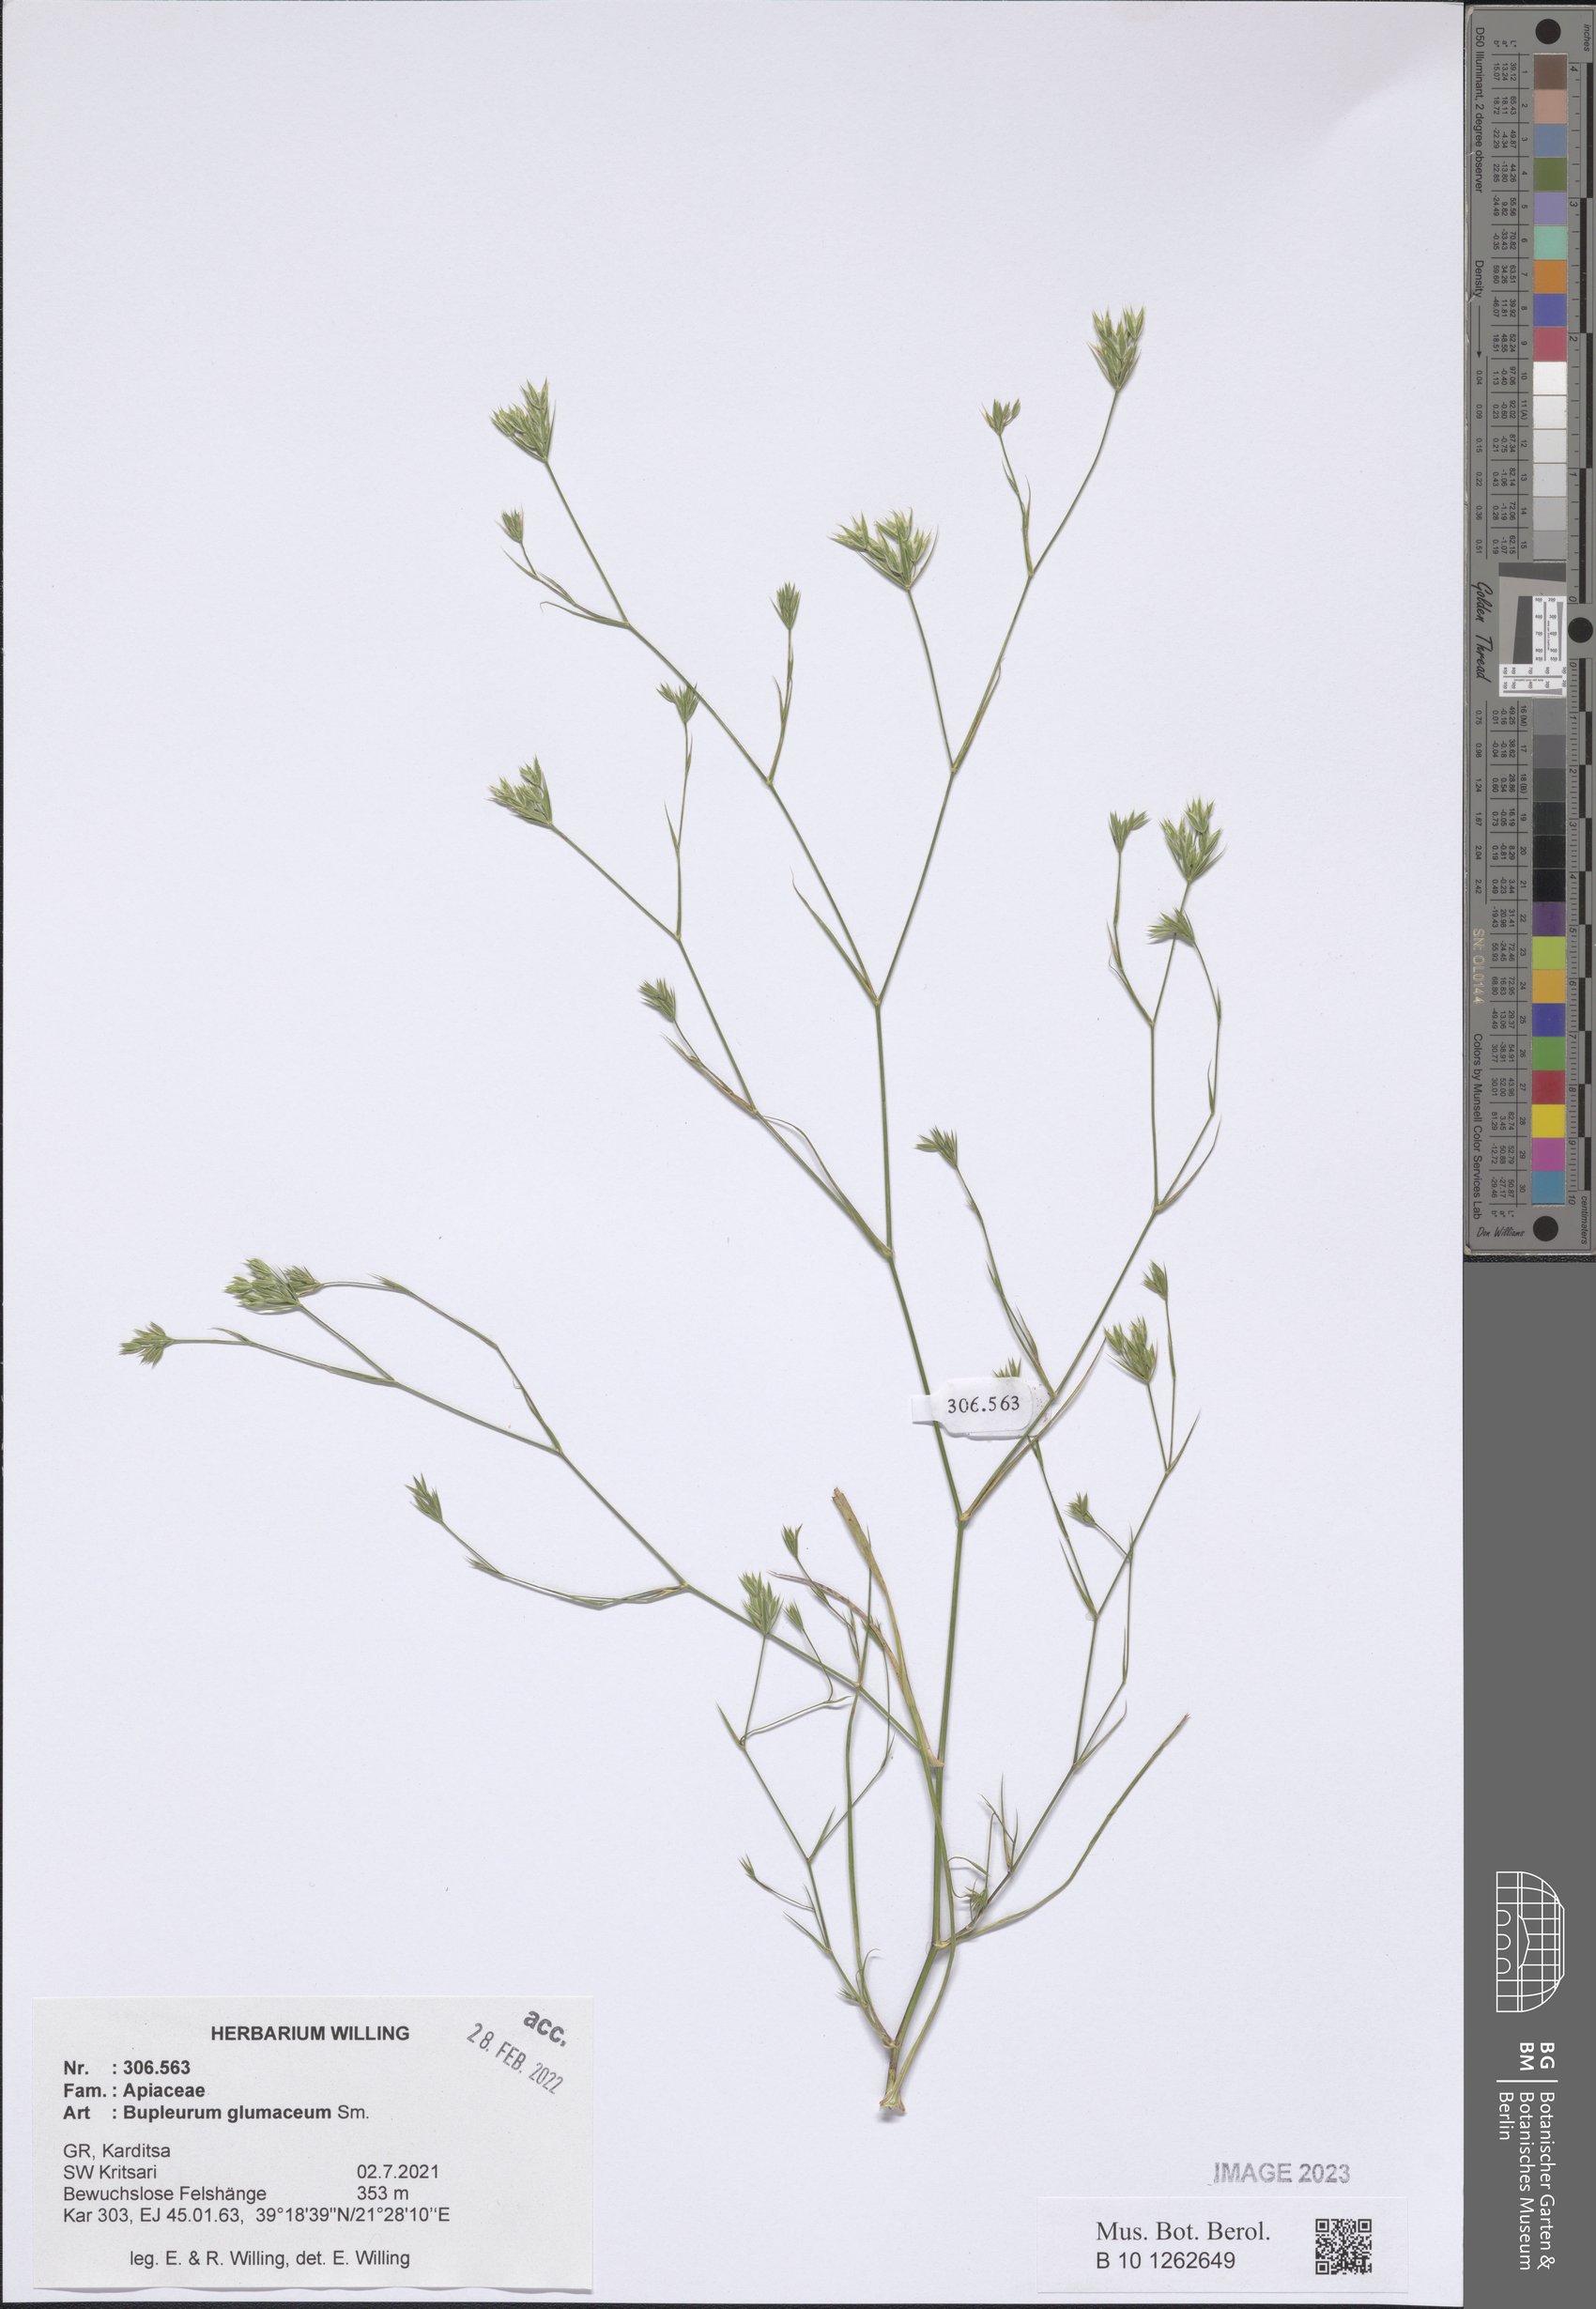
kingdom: Plantae
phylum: Tracheophyta
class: Magnoliopsida
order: Apiales
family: Apiaceae
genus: Bupleurum
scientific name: Bupleurum glumaceum
